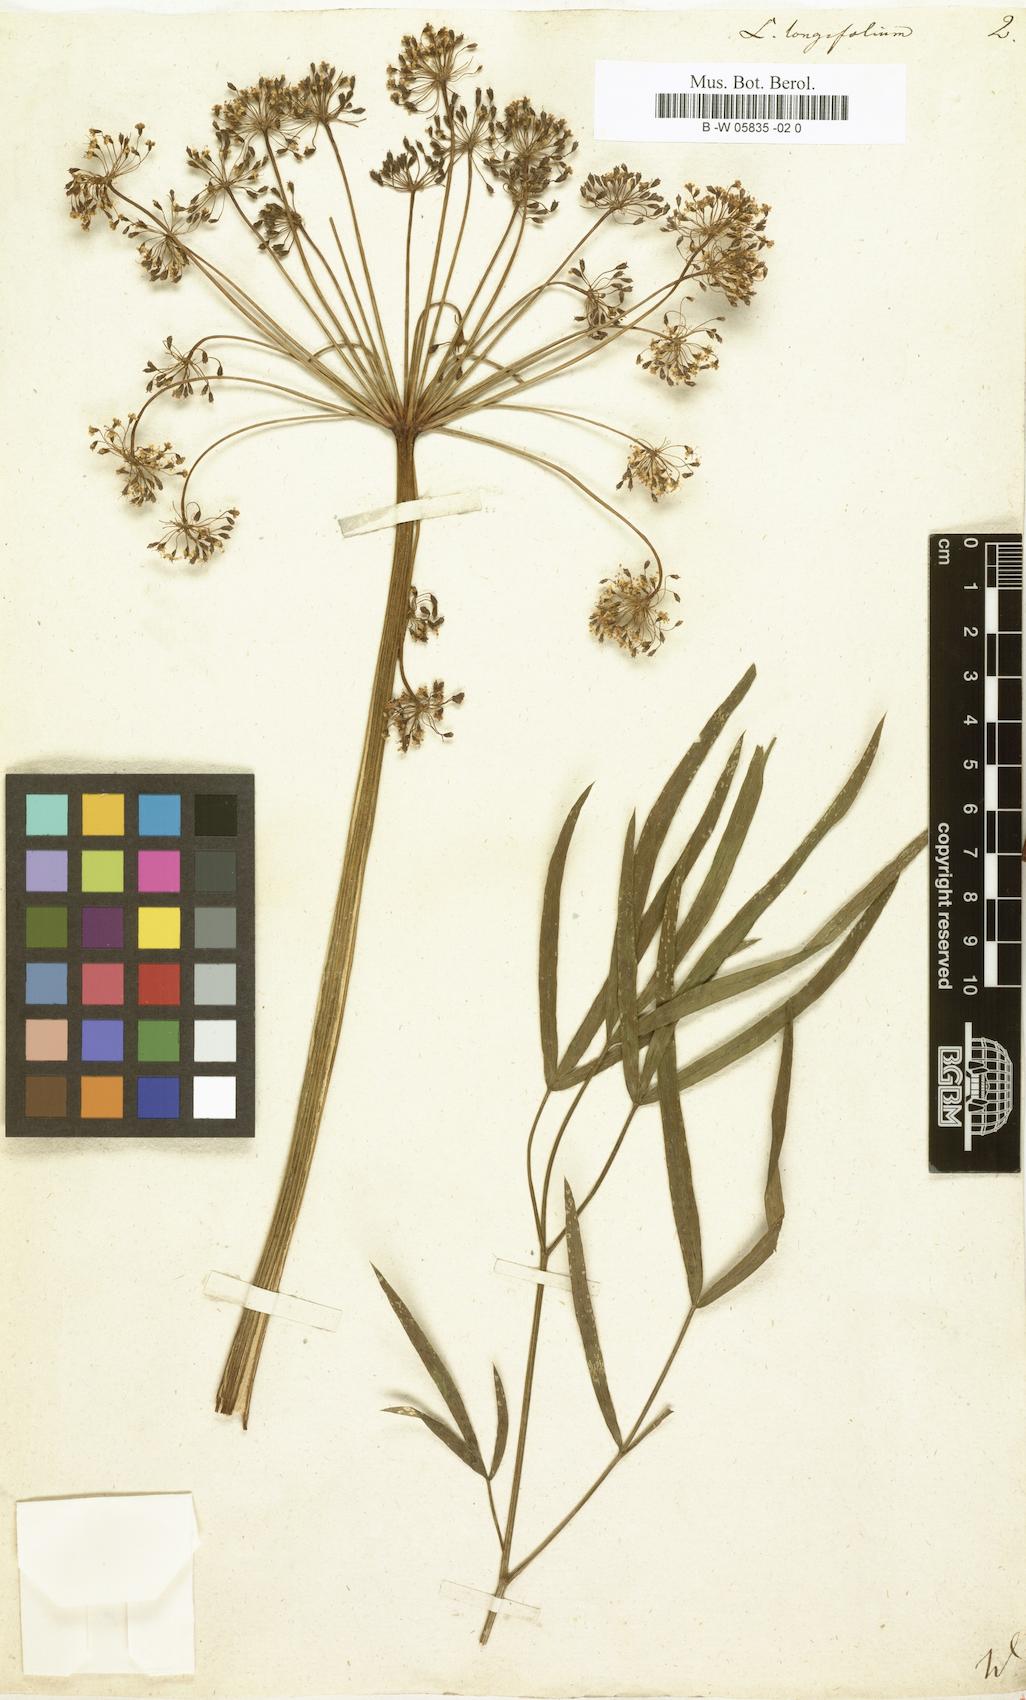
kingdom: Plantae
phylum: Tracheophyta
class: Magnoliopsida
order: Apiales
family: Apiaceae
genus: Peucedanum
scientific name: Peucedanum morisonii
